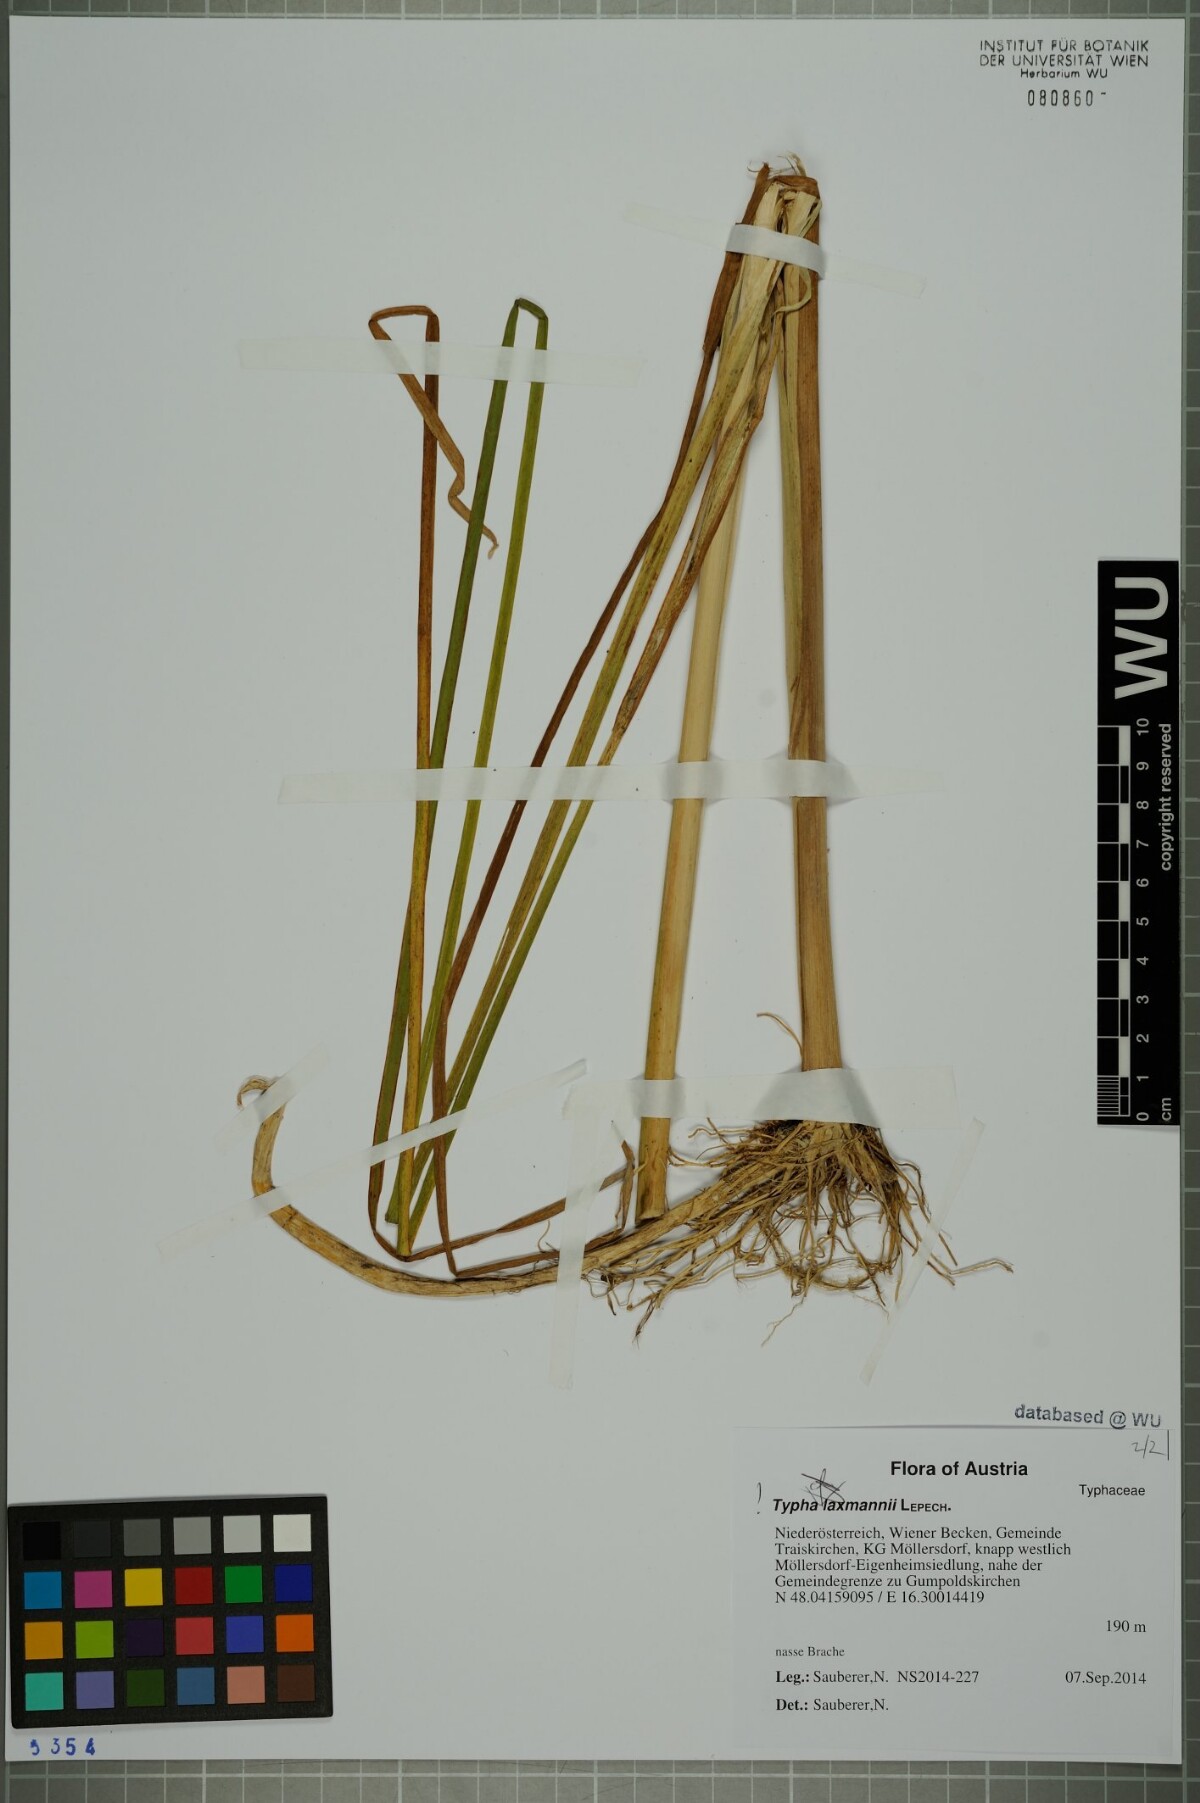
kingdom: Plantae
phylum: Tracheophyta
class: Liliopsida
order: Poales
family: Typhaceae
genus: Typha
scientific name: Typha laxmannii
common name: Laxman’s bulrush
